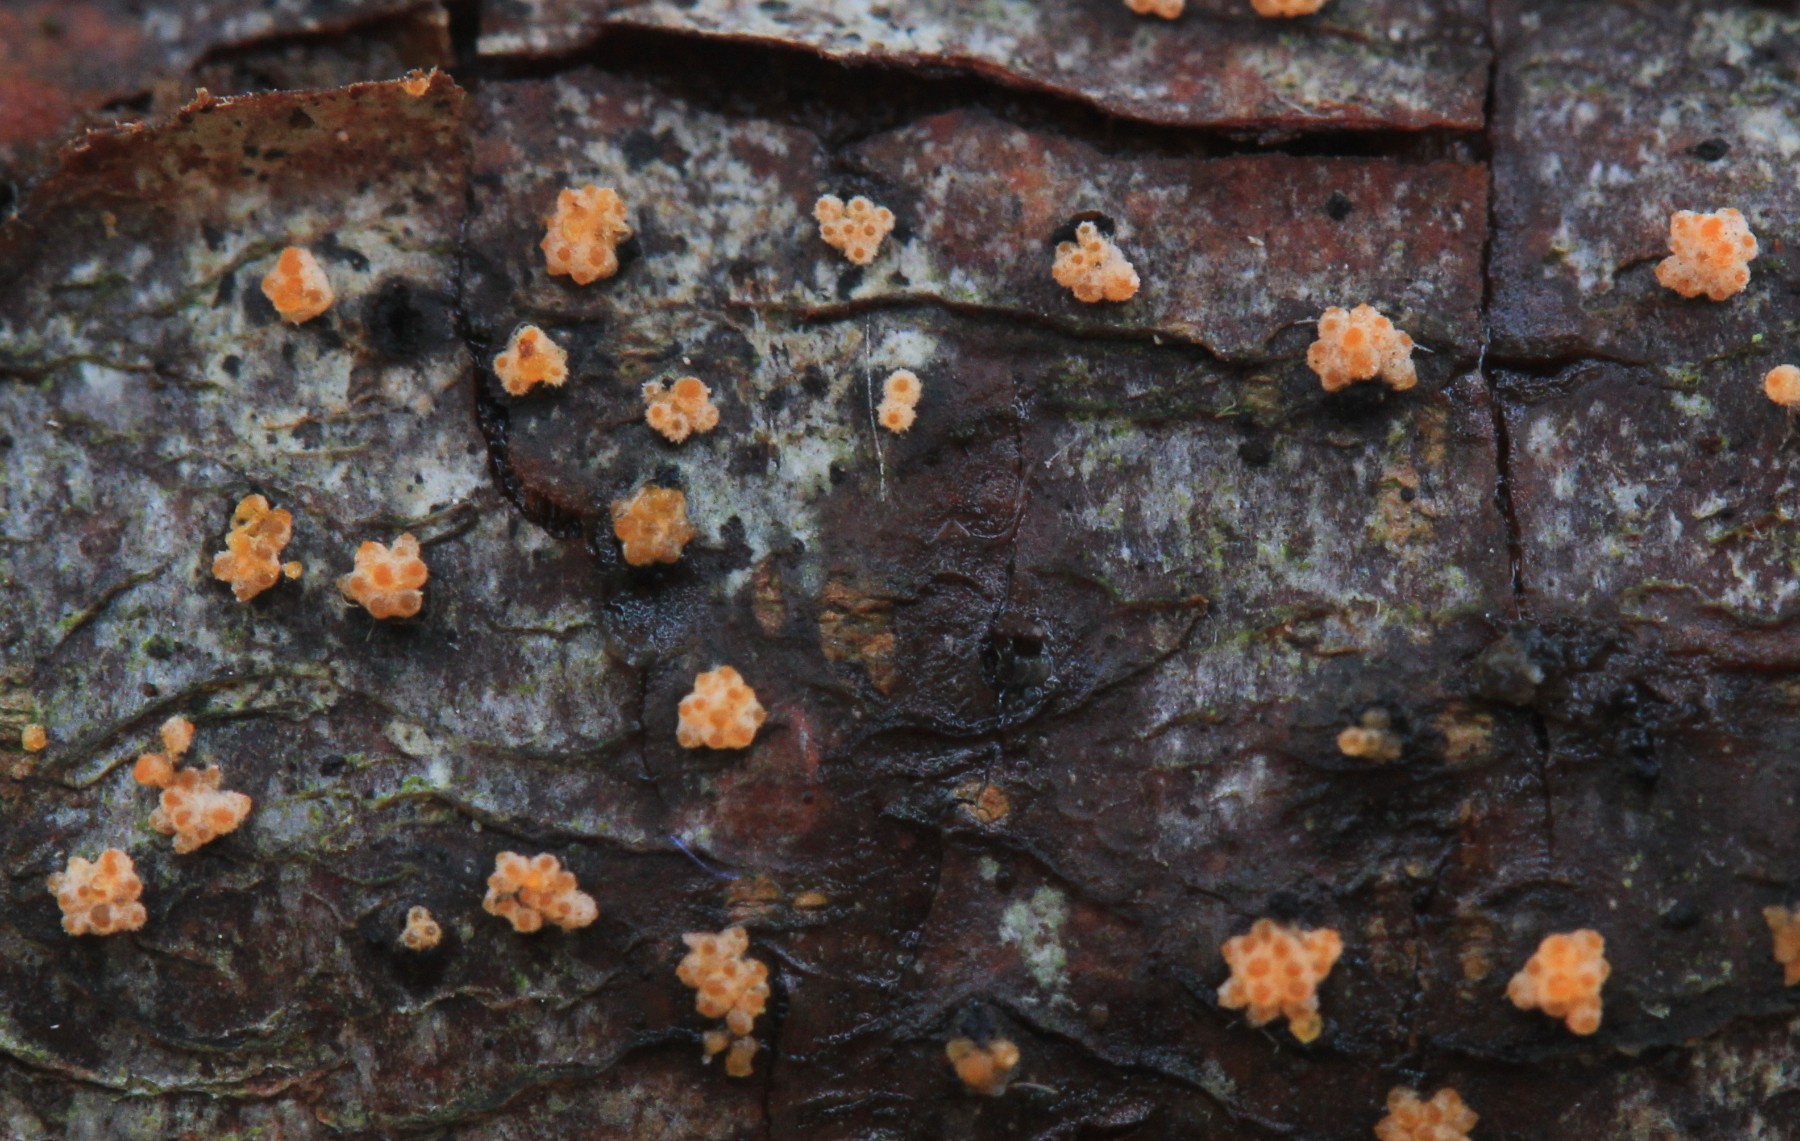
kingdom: Fungi
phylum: Ascomycota
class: Sordariomycetes
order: Hypocreales
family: Flammocladiellaceae
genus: Flammocladiella
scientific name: Flammocladiella decora
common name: kulvulkan-cinnobersvamp
